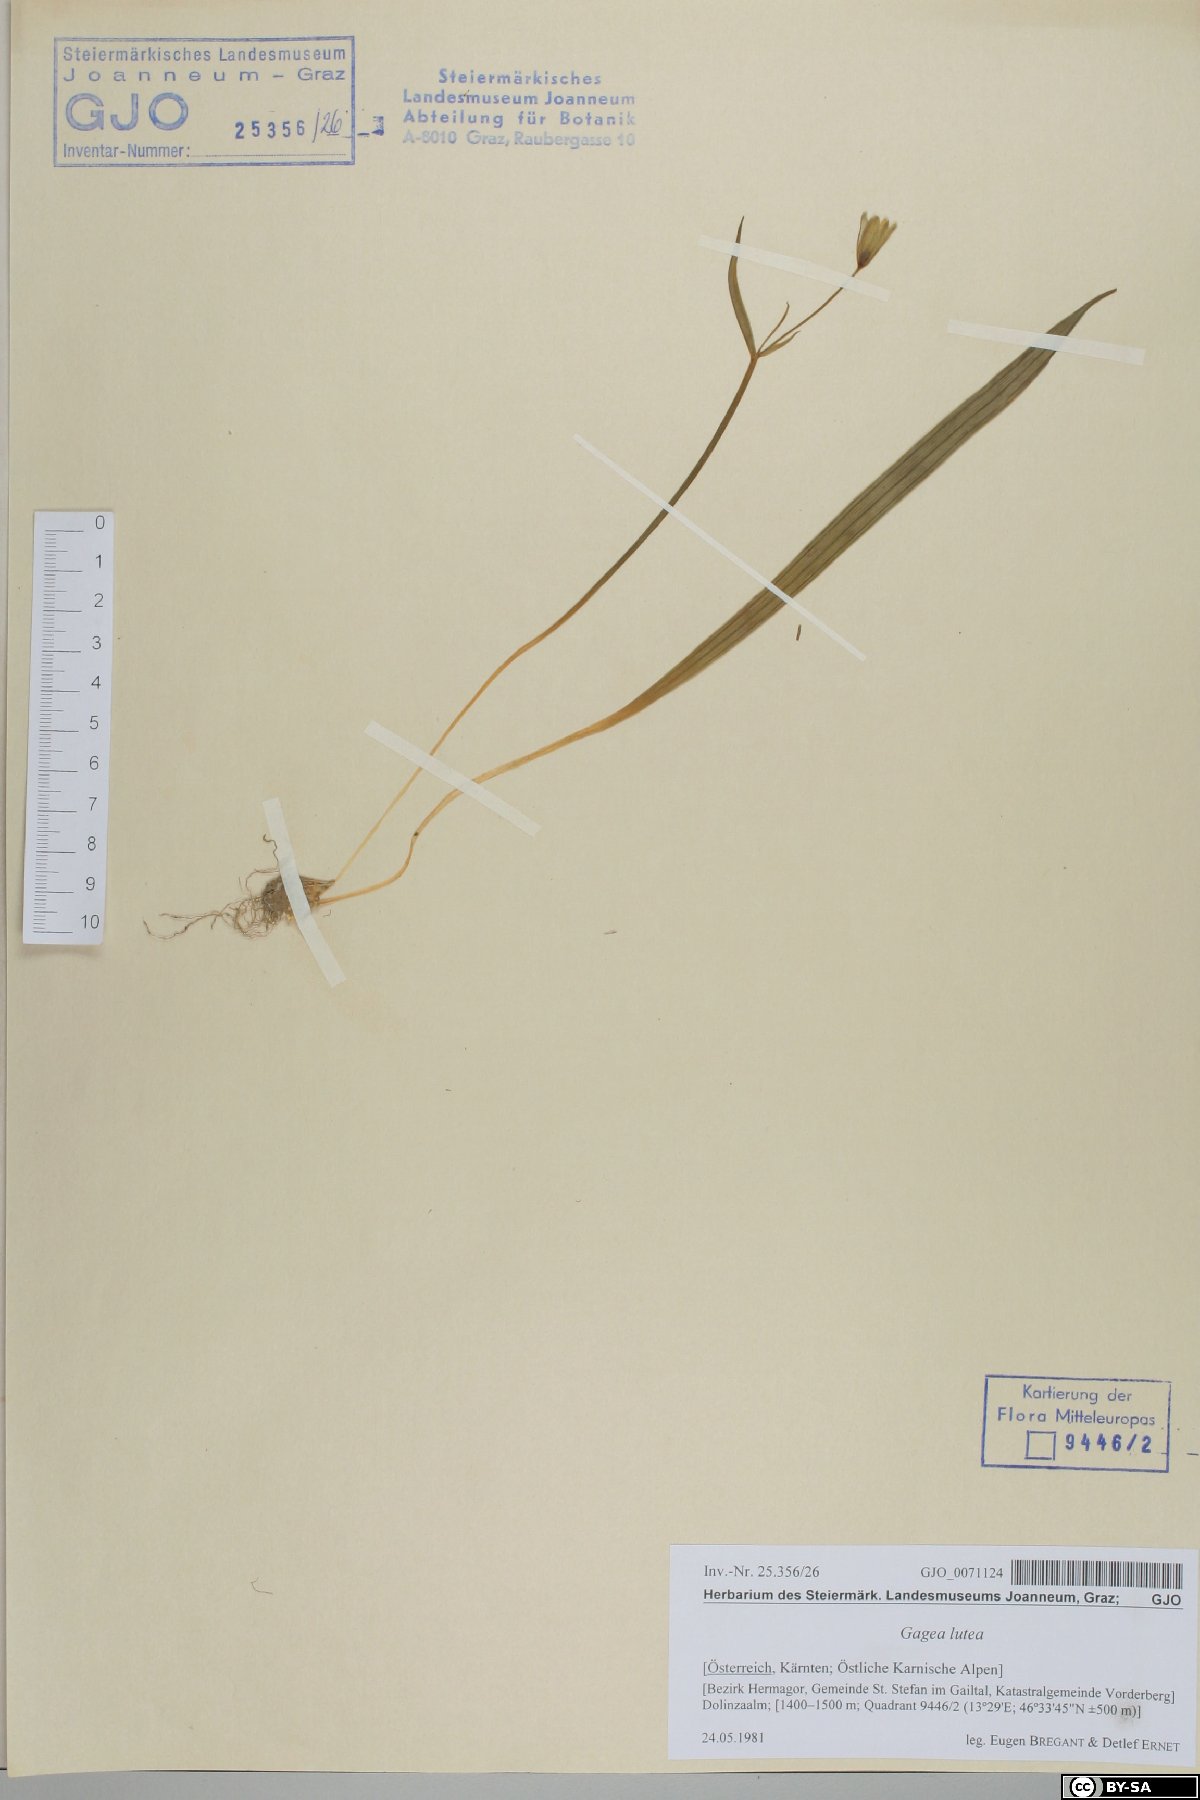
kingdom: Plantae
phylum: Tracheophyta
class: Liliopsida
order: Liliales
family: Liliaceae
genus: Gagea
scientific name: Gagea lutea
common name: Yellow star-of-bethlehem
